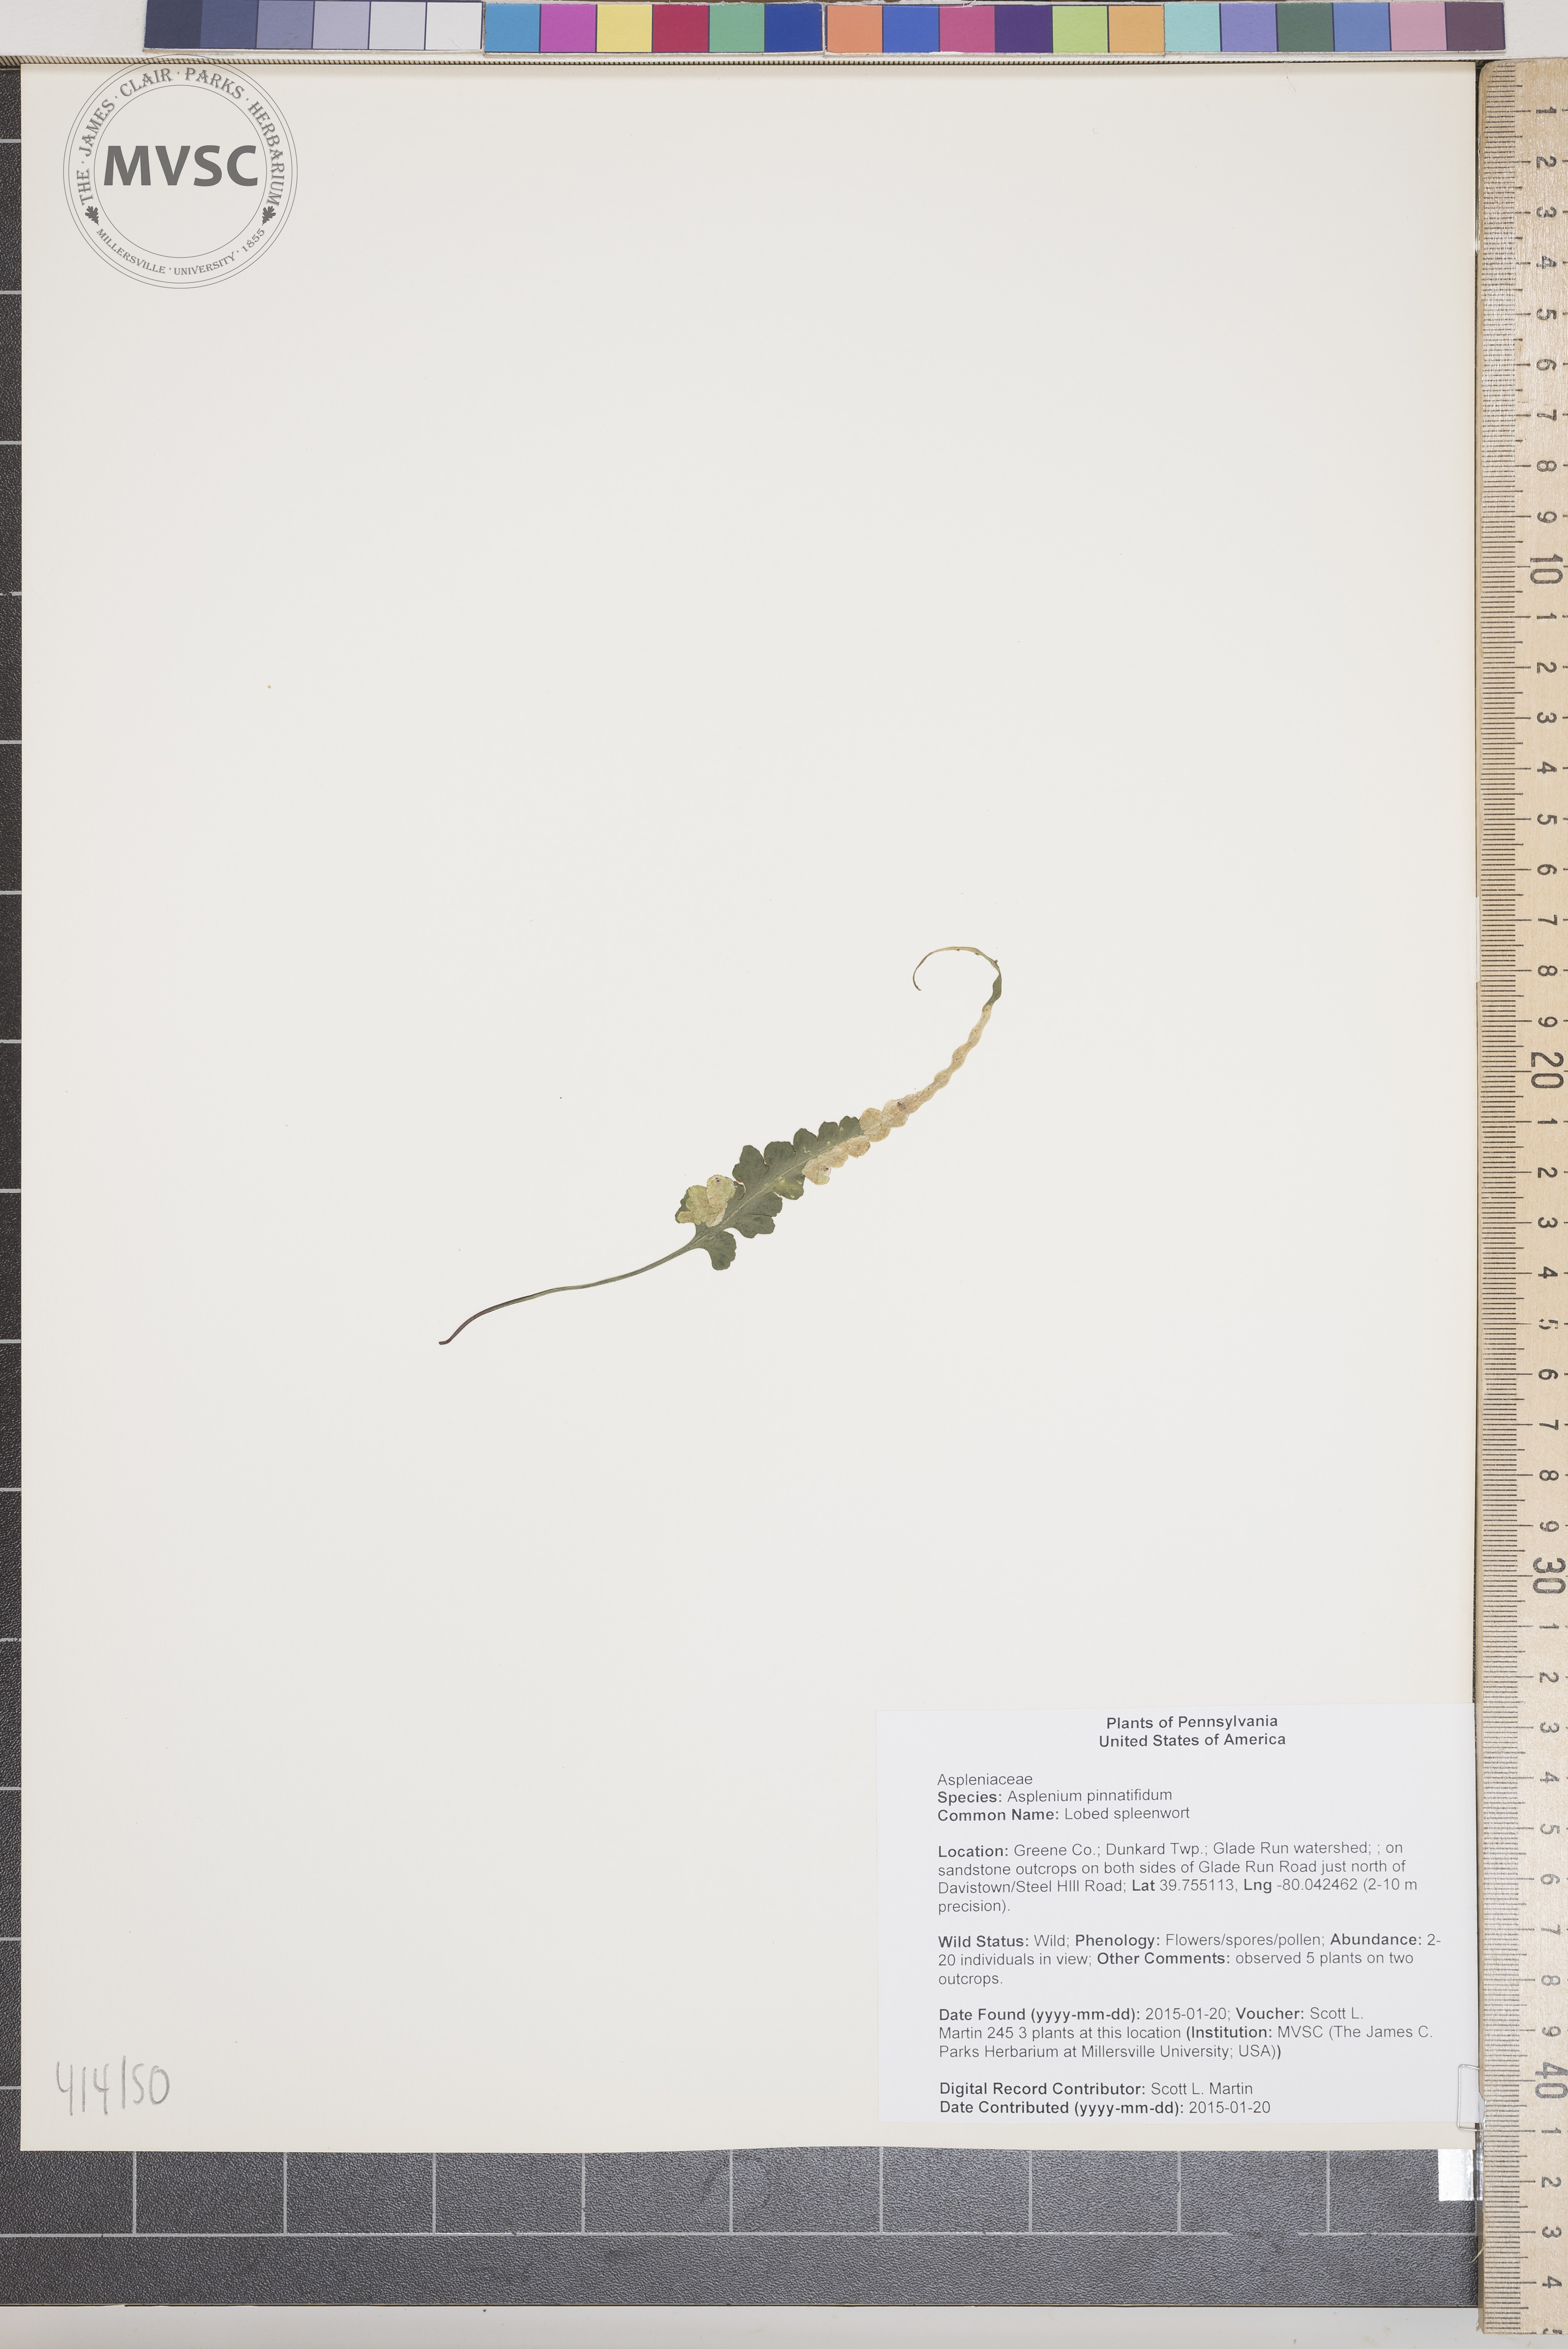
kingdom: Plantae
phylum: Tracheophyta
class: Polypodiopsida
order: Polypodiales
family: Aspleniaceae
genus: Asplenium
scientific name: Asplenium pinnatifidum
